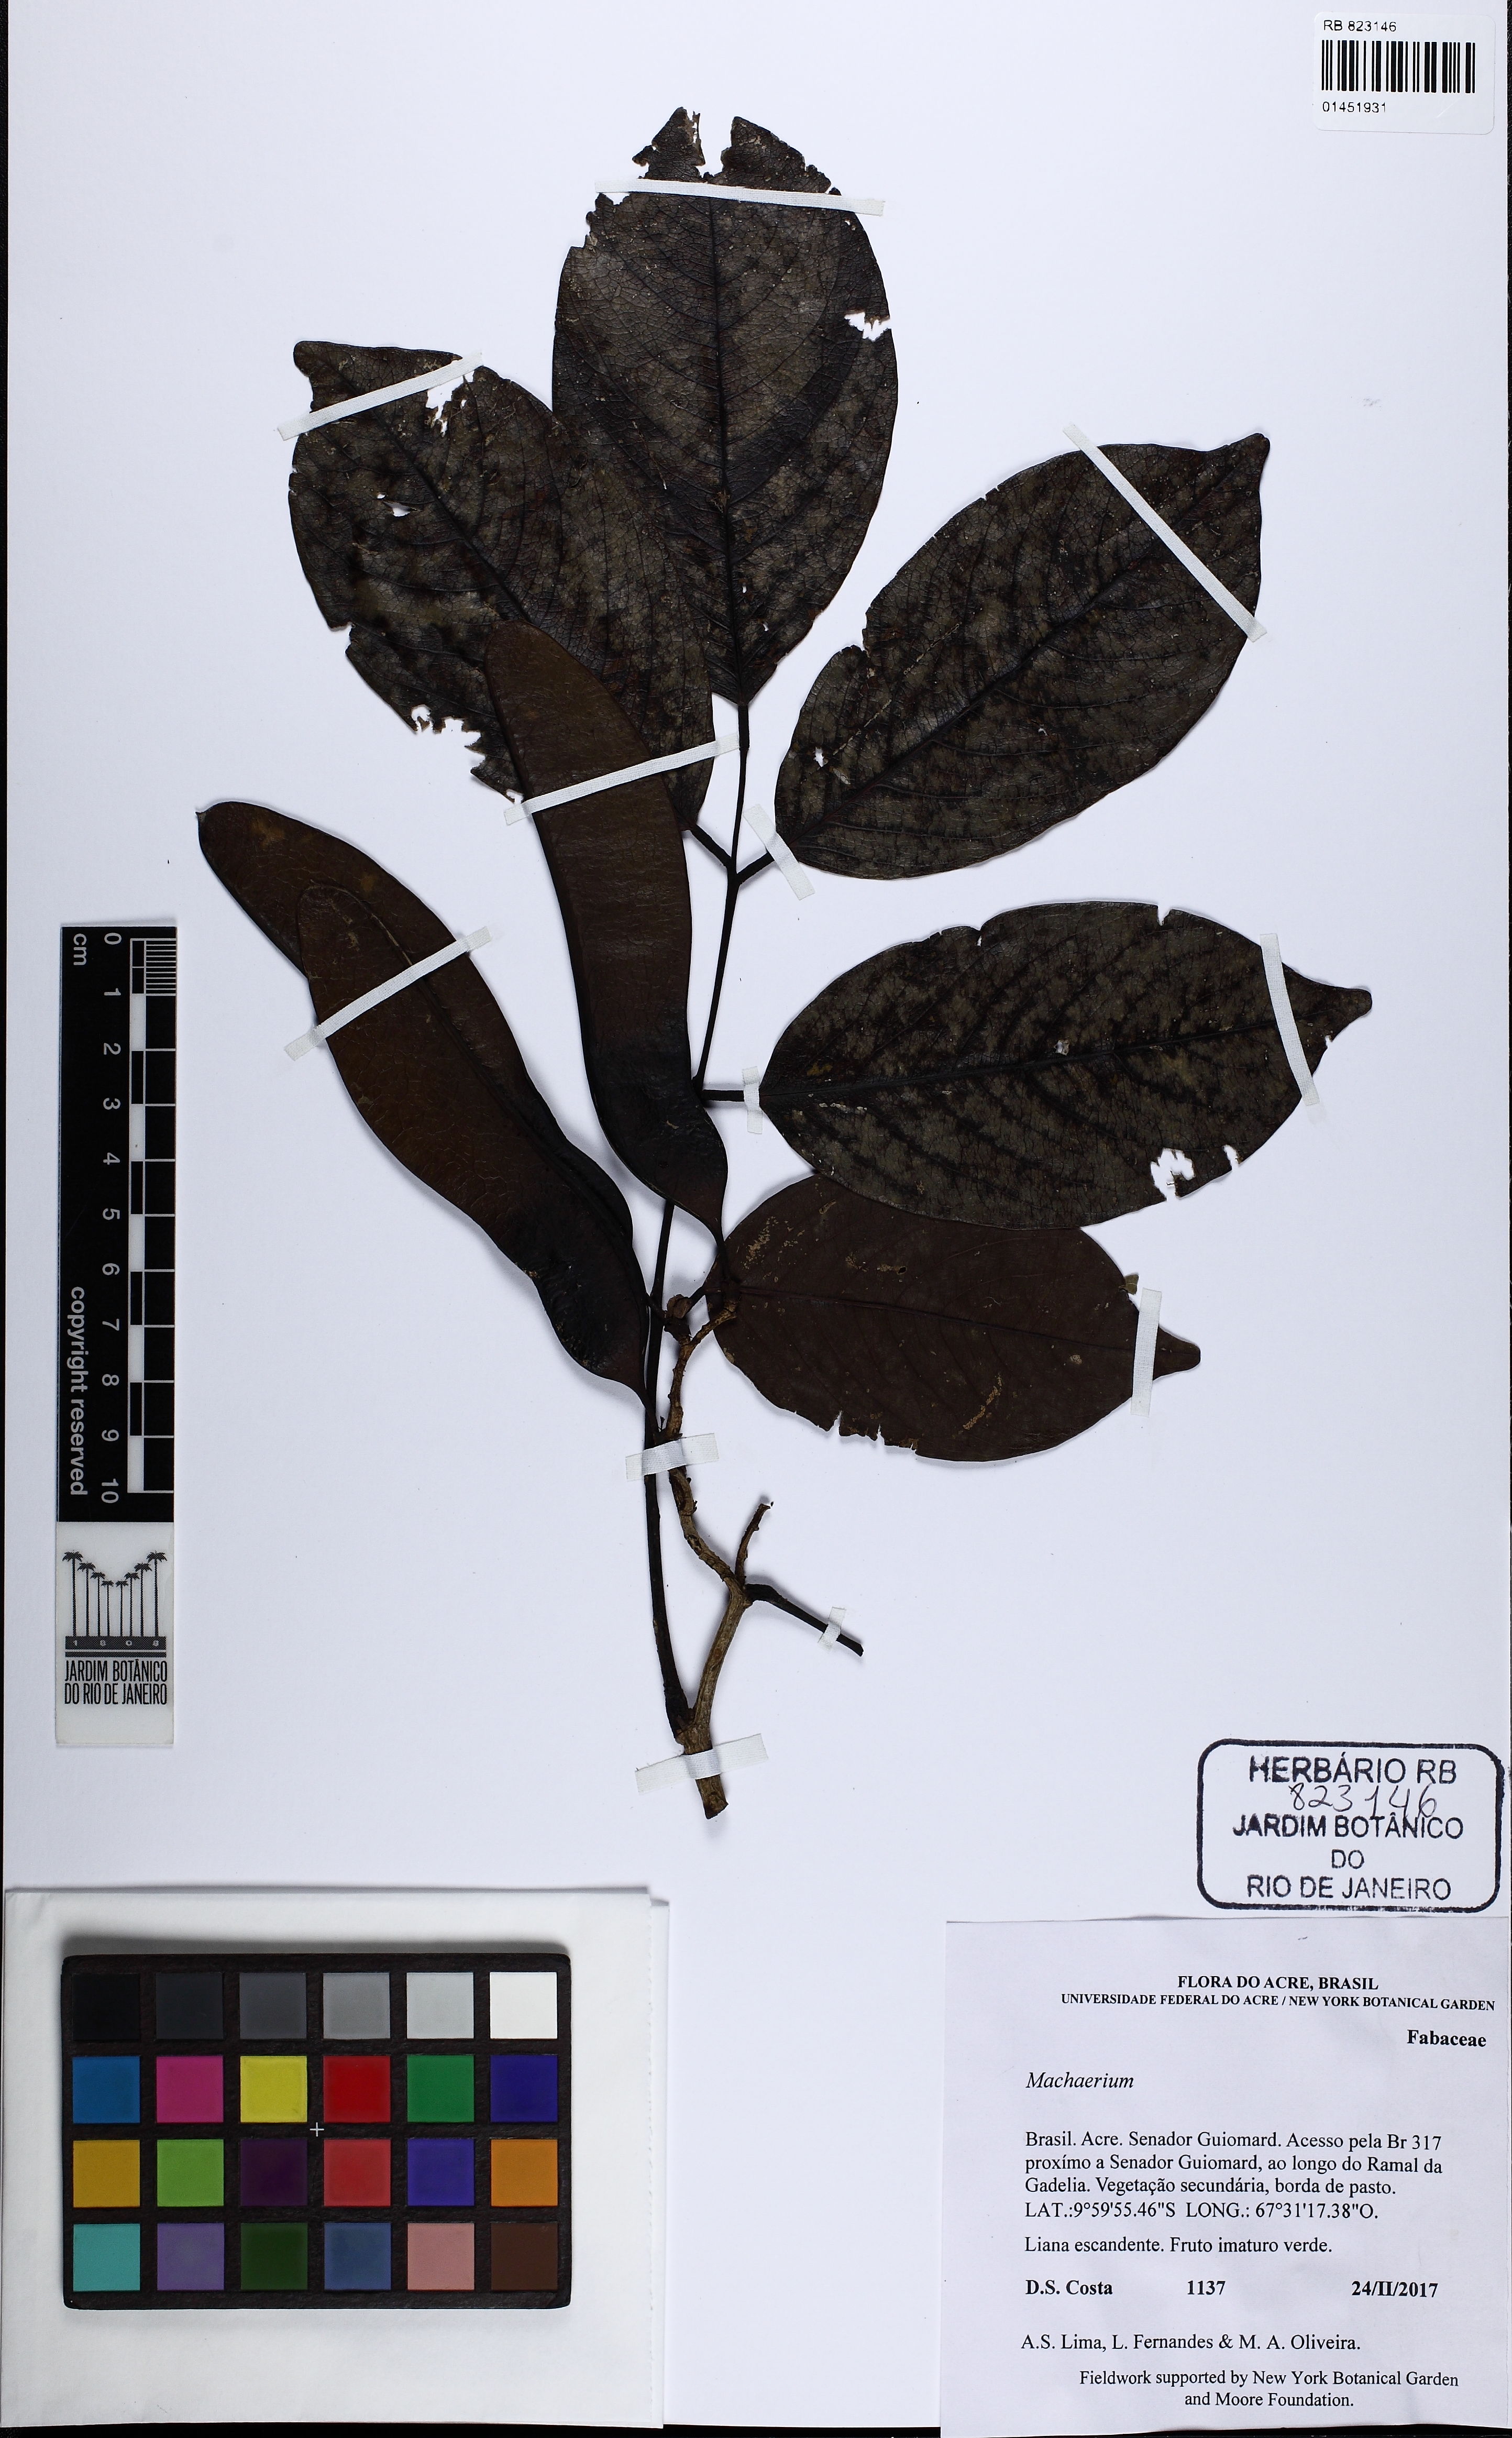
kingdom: Plantae
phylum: Tracheophyta
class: Magnoliopsida
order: Fabales
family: Fabaceae
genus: Machaerium
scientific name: Machaerium
